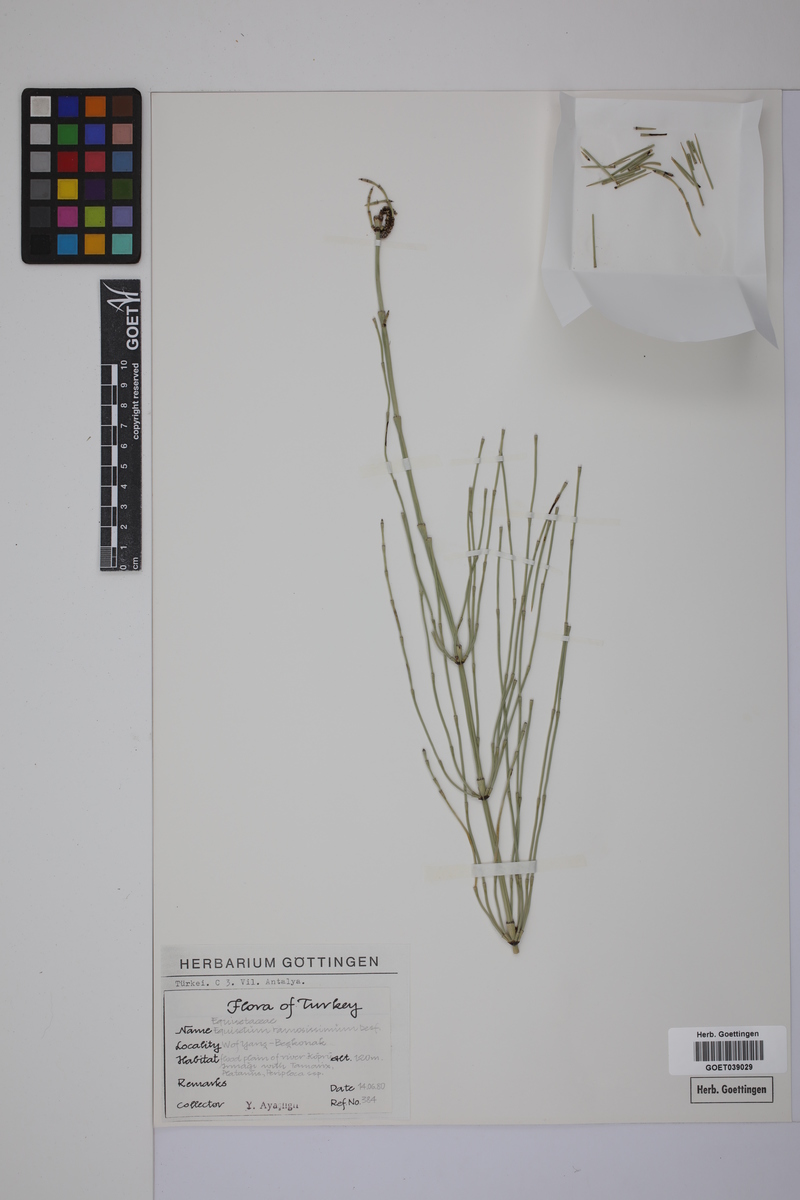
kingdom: Plantae
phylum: Tracheophyta
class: Polypodiopsida
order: Equisetales
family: Equisetaceae
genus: Equisetum
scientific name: Equisetum giganteum
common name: Giant horsetail
